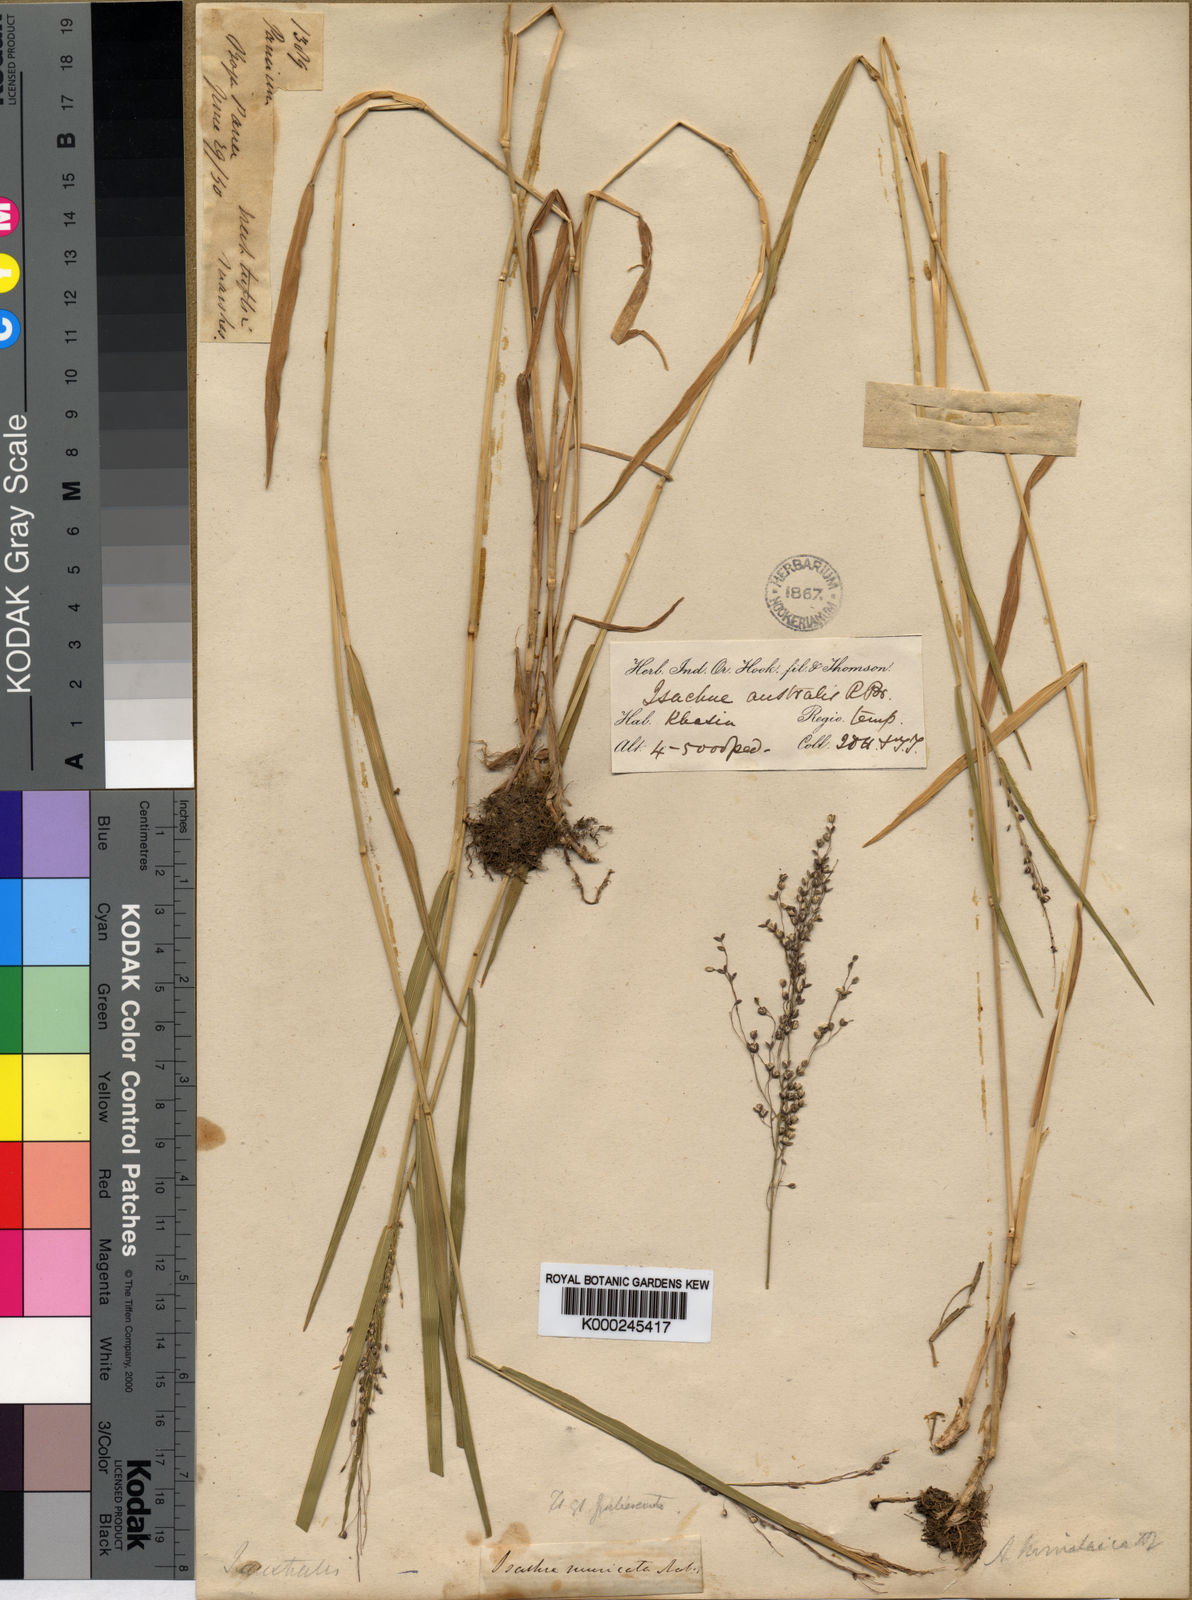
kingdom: Plantae
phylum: Tracheophyta
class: Liliopsida
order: Poales
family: Poaceae
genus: Isachne
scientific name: Isachne himalaica
